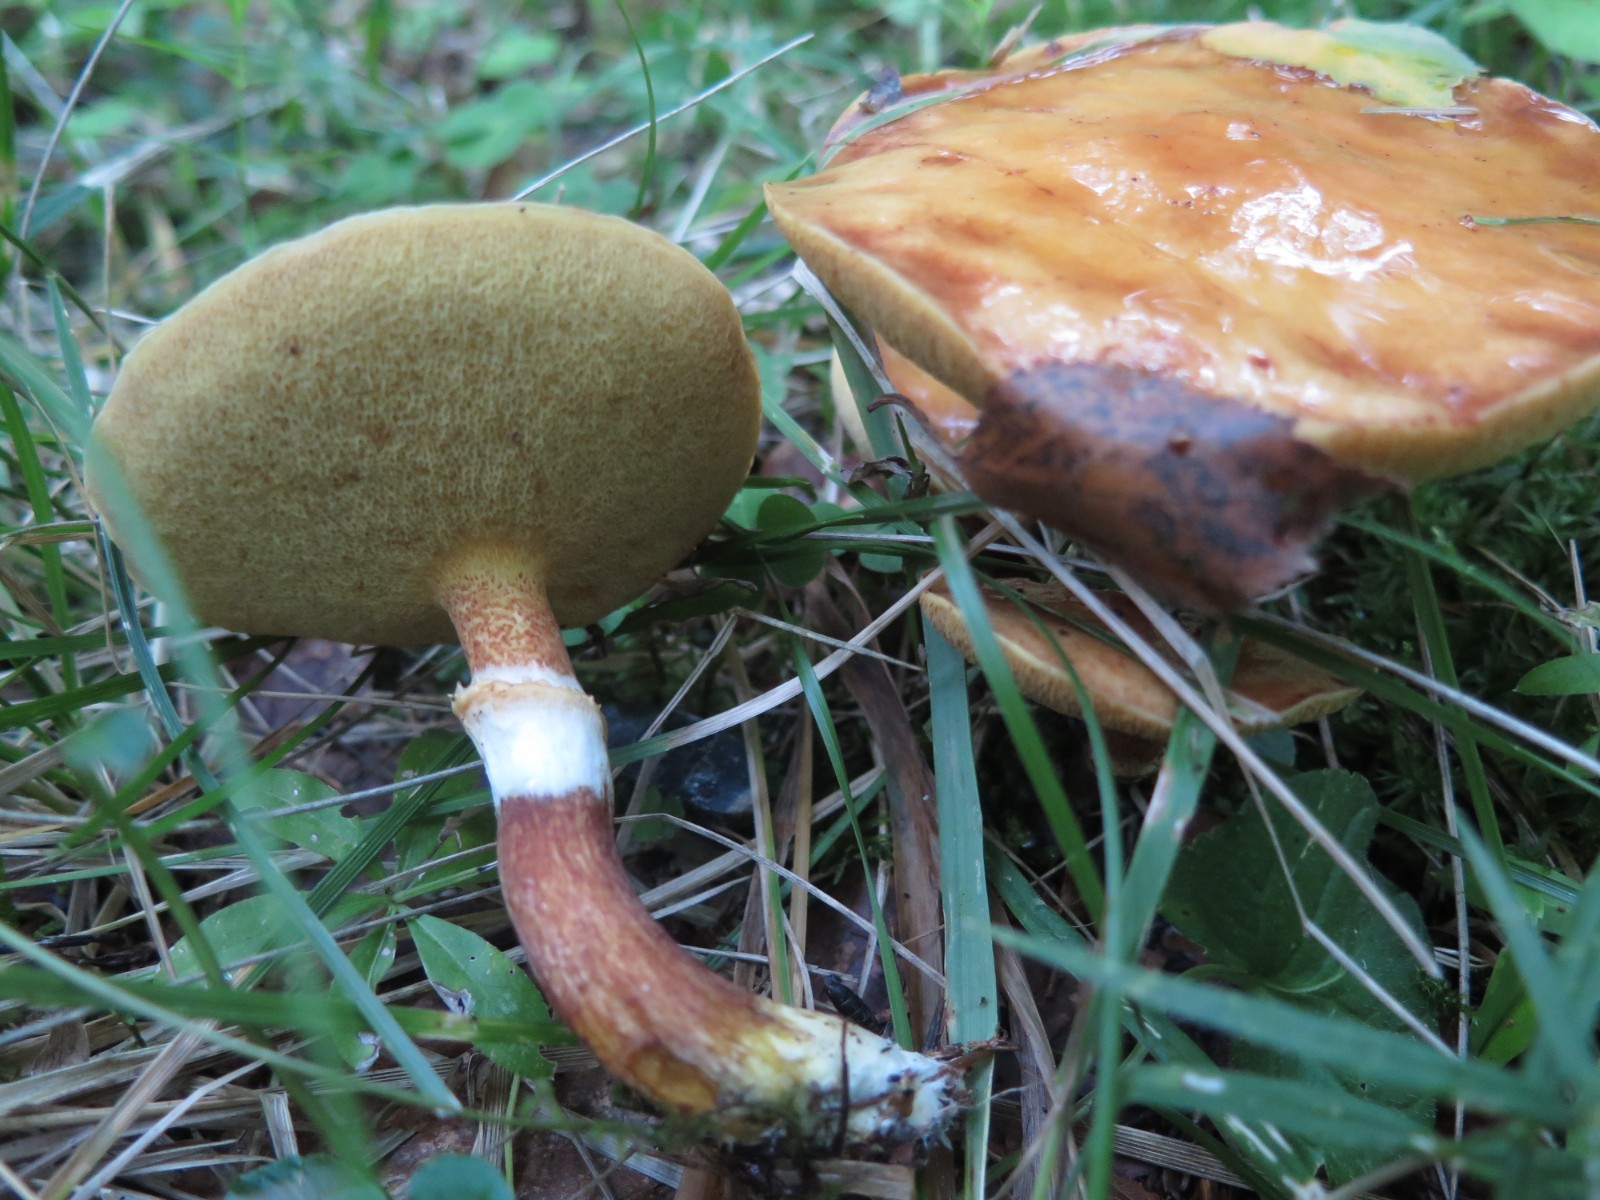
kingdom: Fungi
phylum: Basidiomycota
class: Agaricomycetes
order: Boletales
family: Suillaceae
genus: Suillus
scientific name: Suillus grevillei
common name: lærke-slimrørhat
